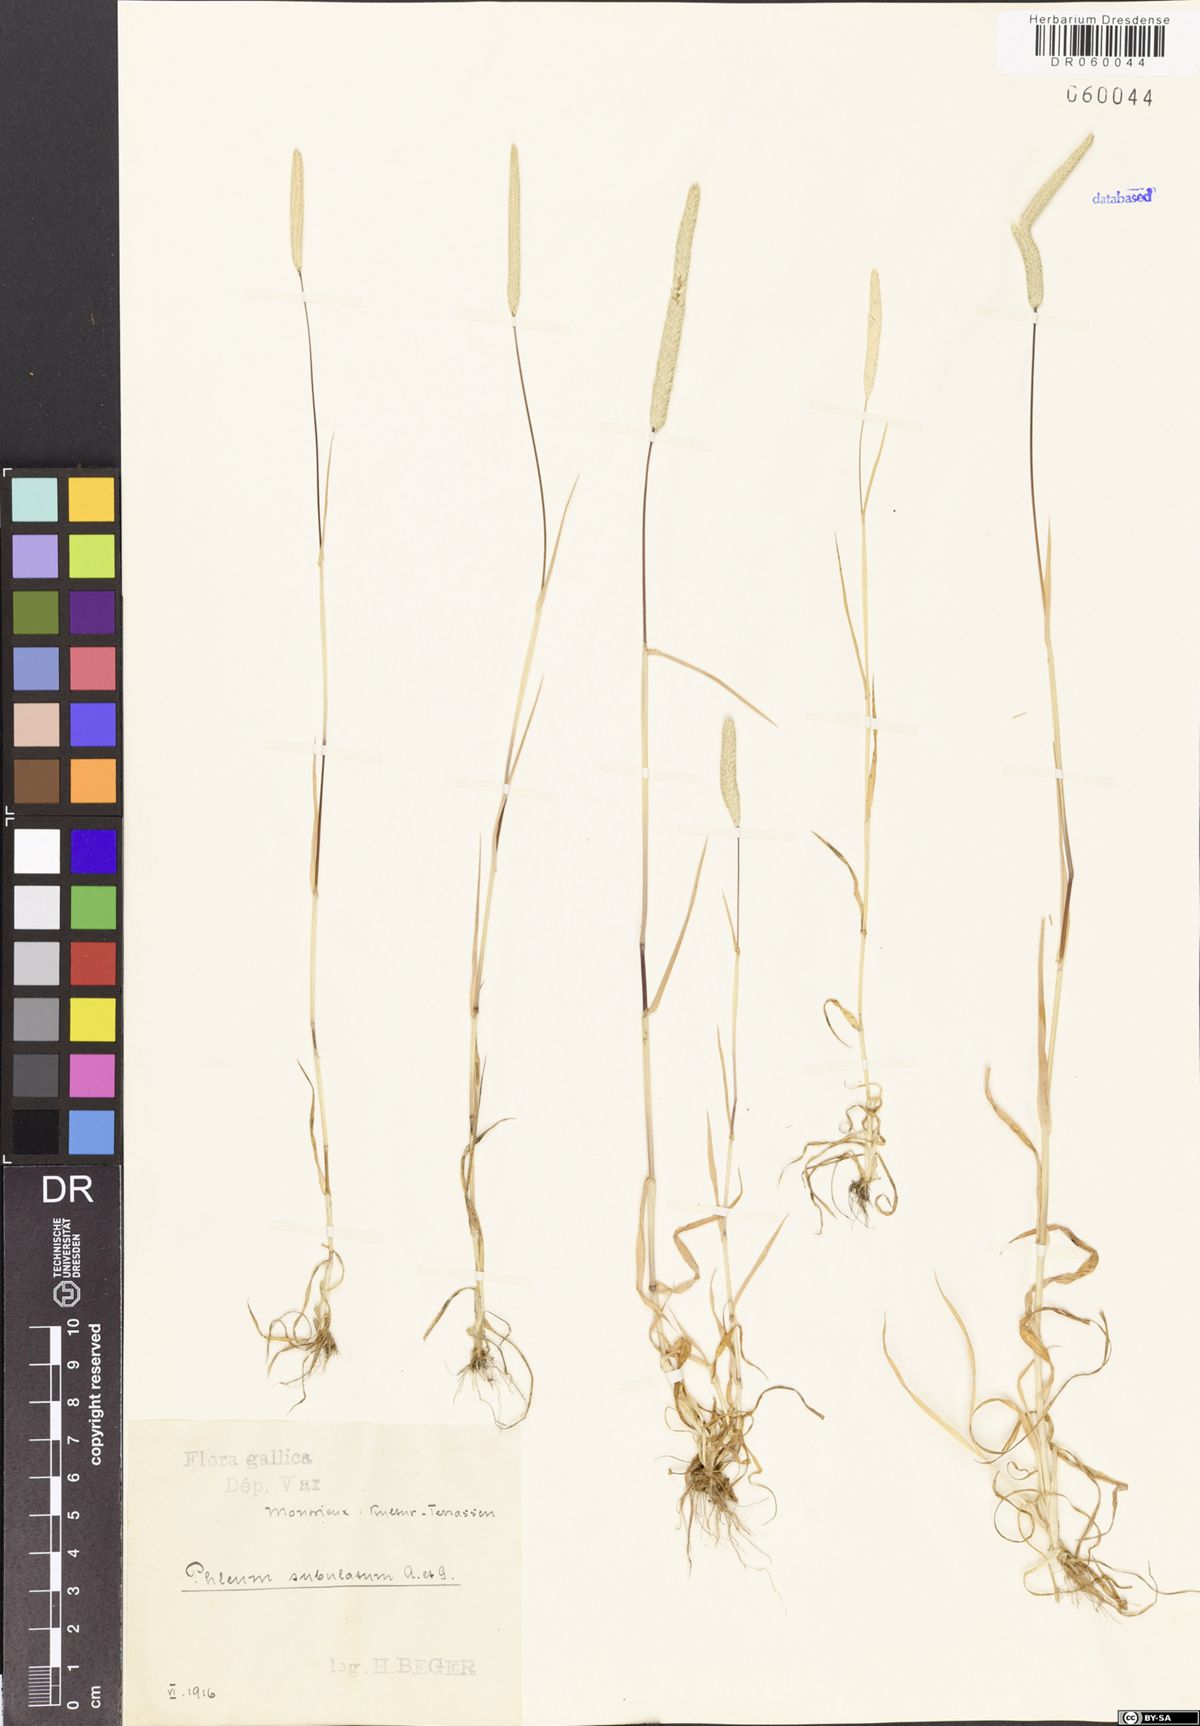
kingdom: Plantae
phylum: Tracheophyta
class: Liliopsida
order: Poales
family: Poaceae
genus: Phleum
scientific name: Phleum subulatum
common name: Italian timothy
